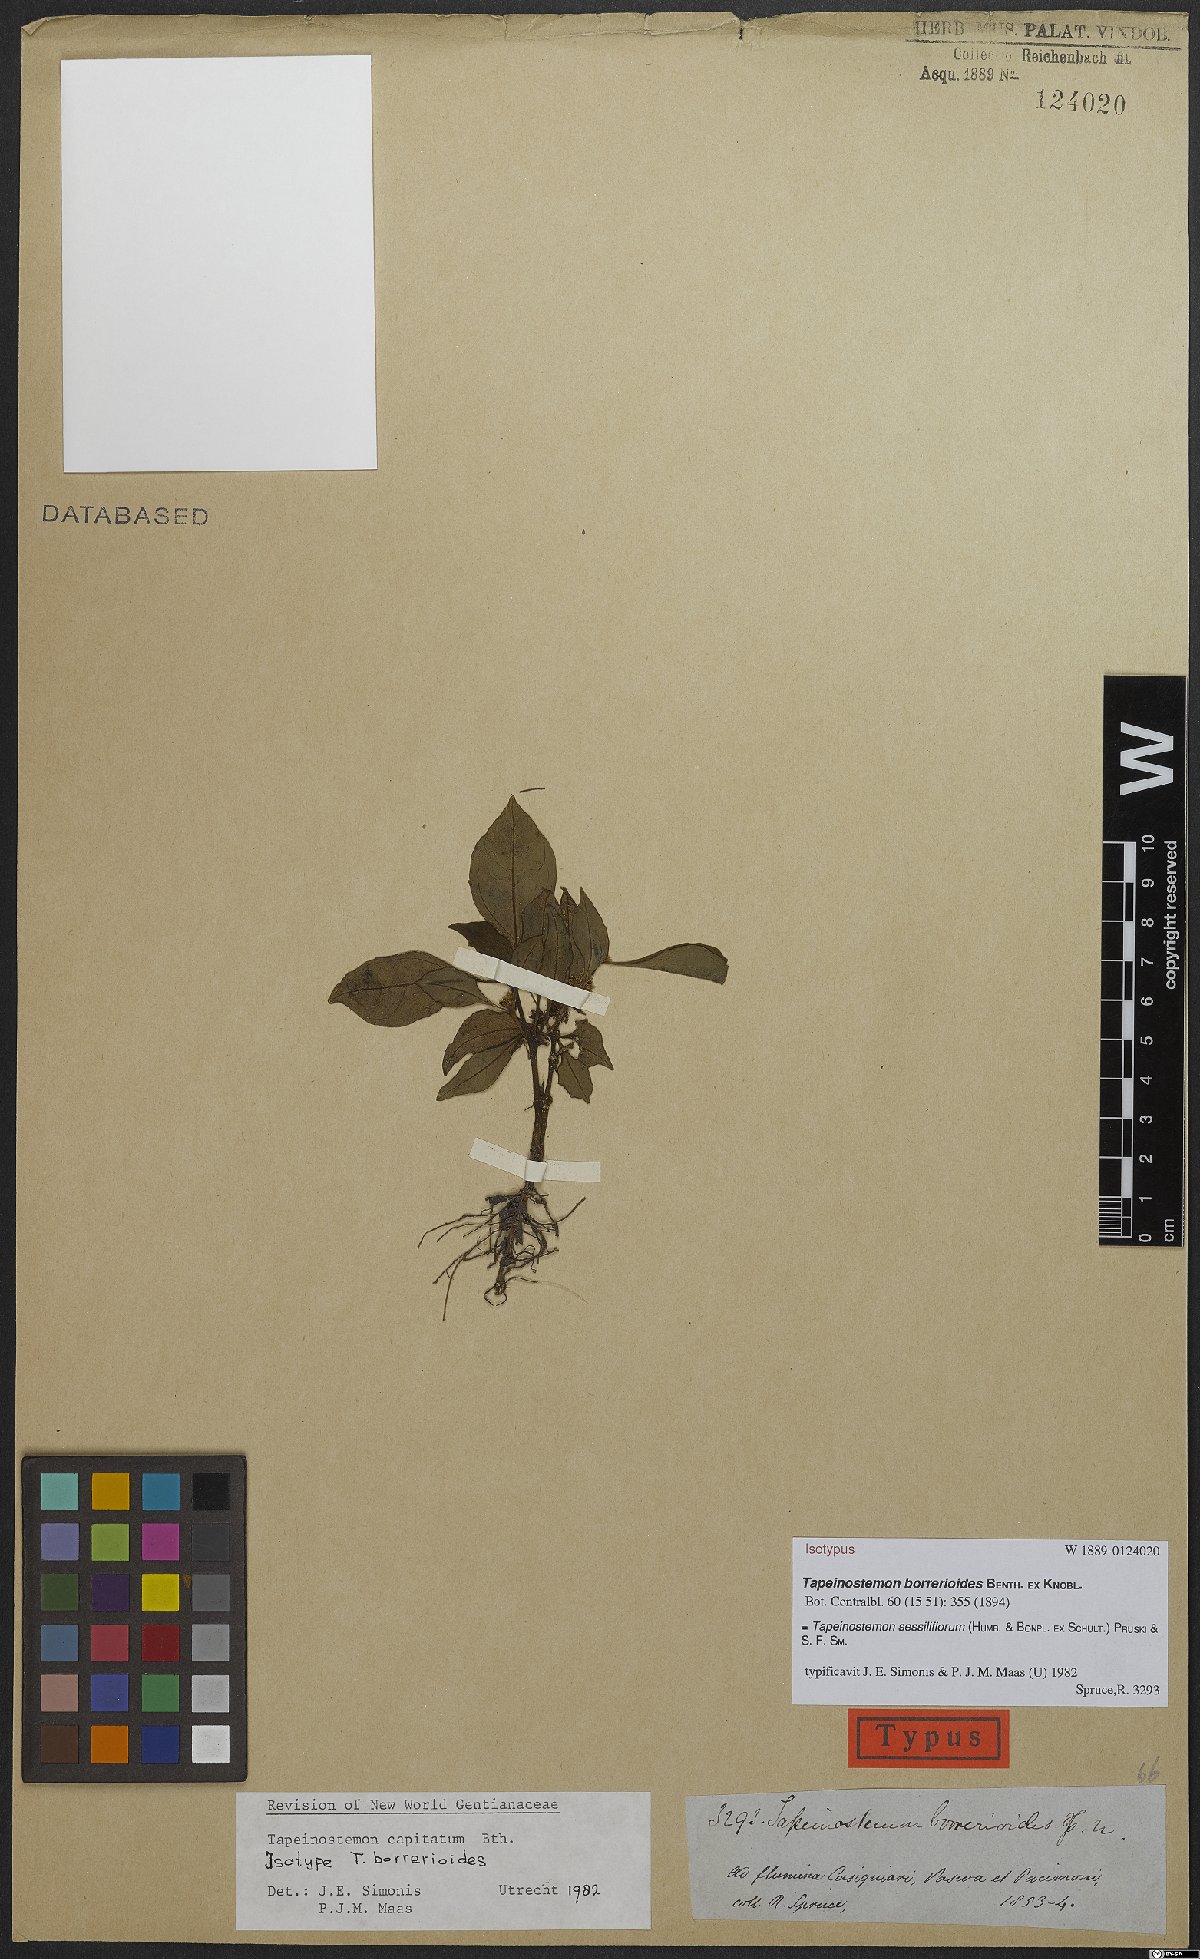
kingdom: Plantae
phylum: Tracheophyta
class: Magnoliopsida
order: Gentianales
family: Gentianaceae
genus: Tapeinostemon
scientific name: Tapeinostemon sessiliflorus
